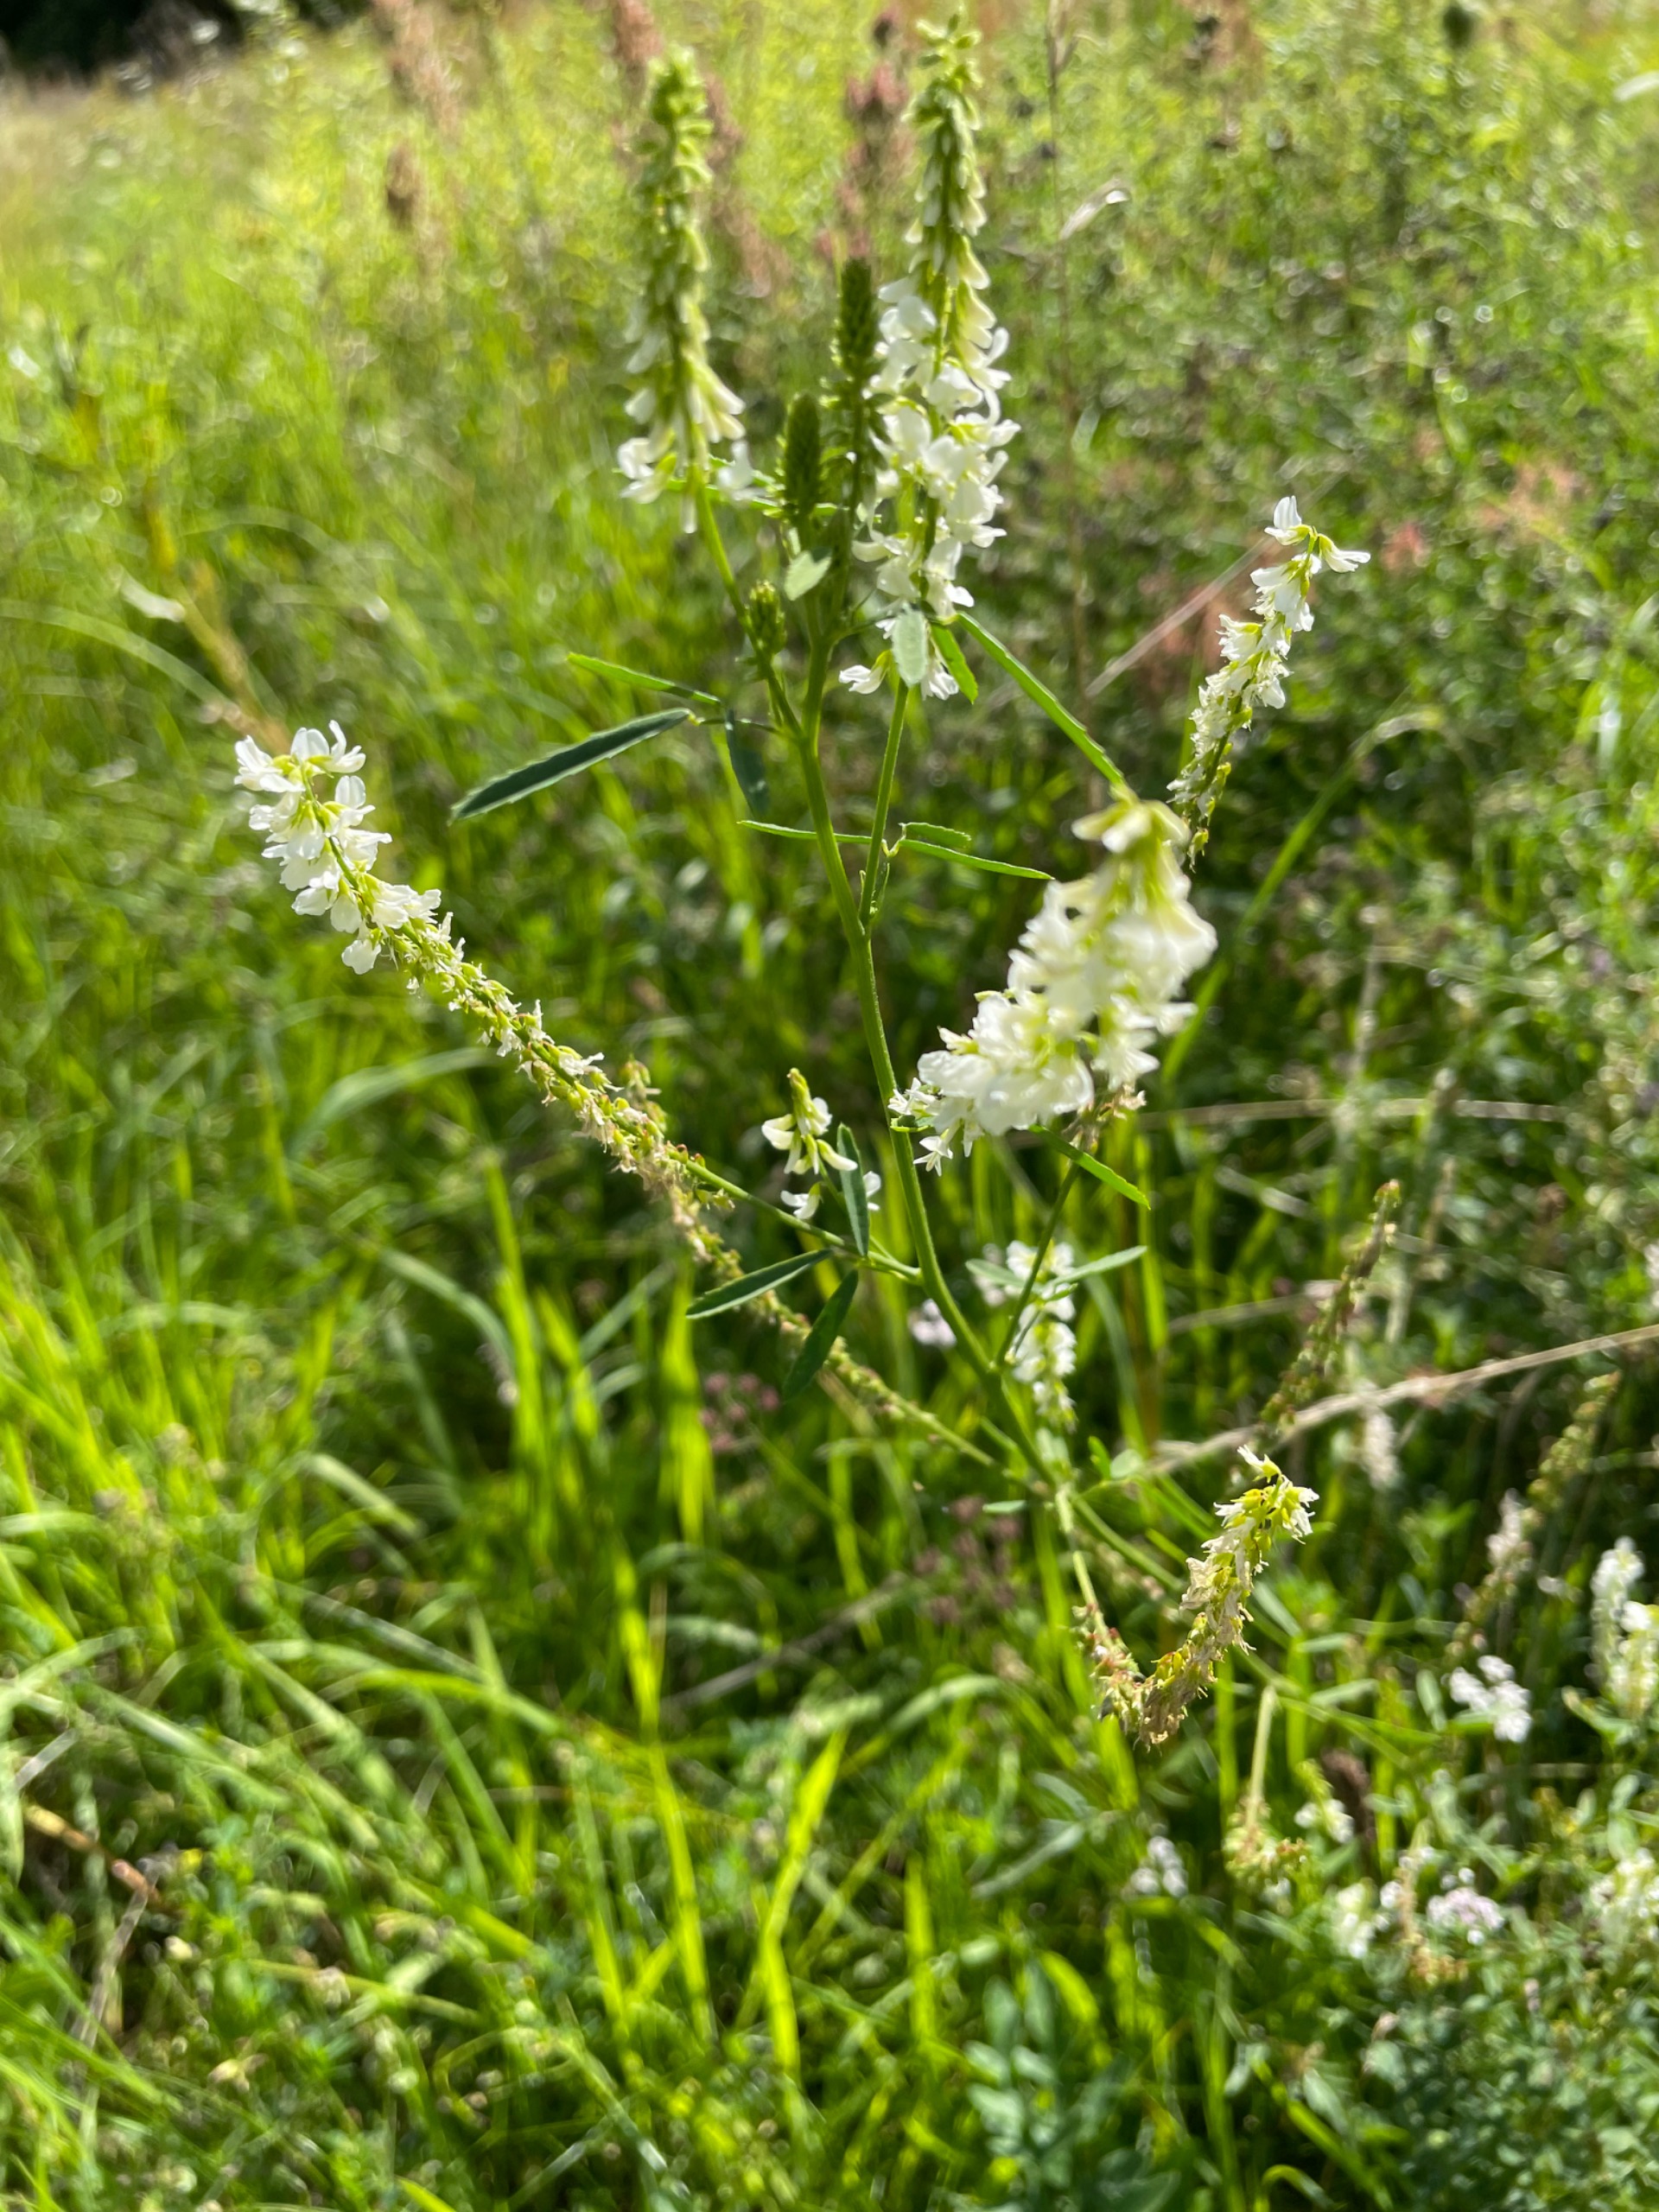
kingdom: Plantae
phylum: Tracheophyta
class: Magnoliopsida
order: Fabales
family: Fabaceae
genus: Melilotus
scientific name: Melilotus albus
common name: Hvid stenkløver
